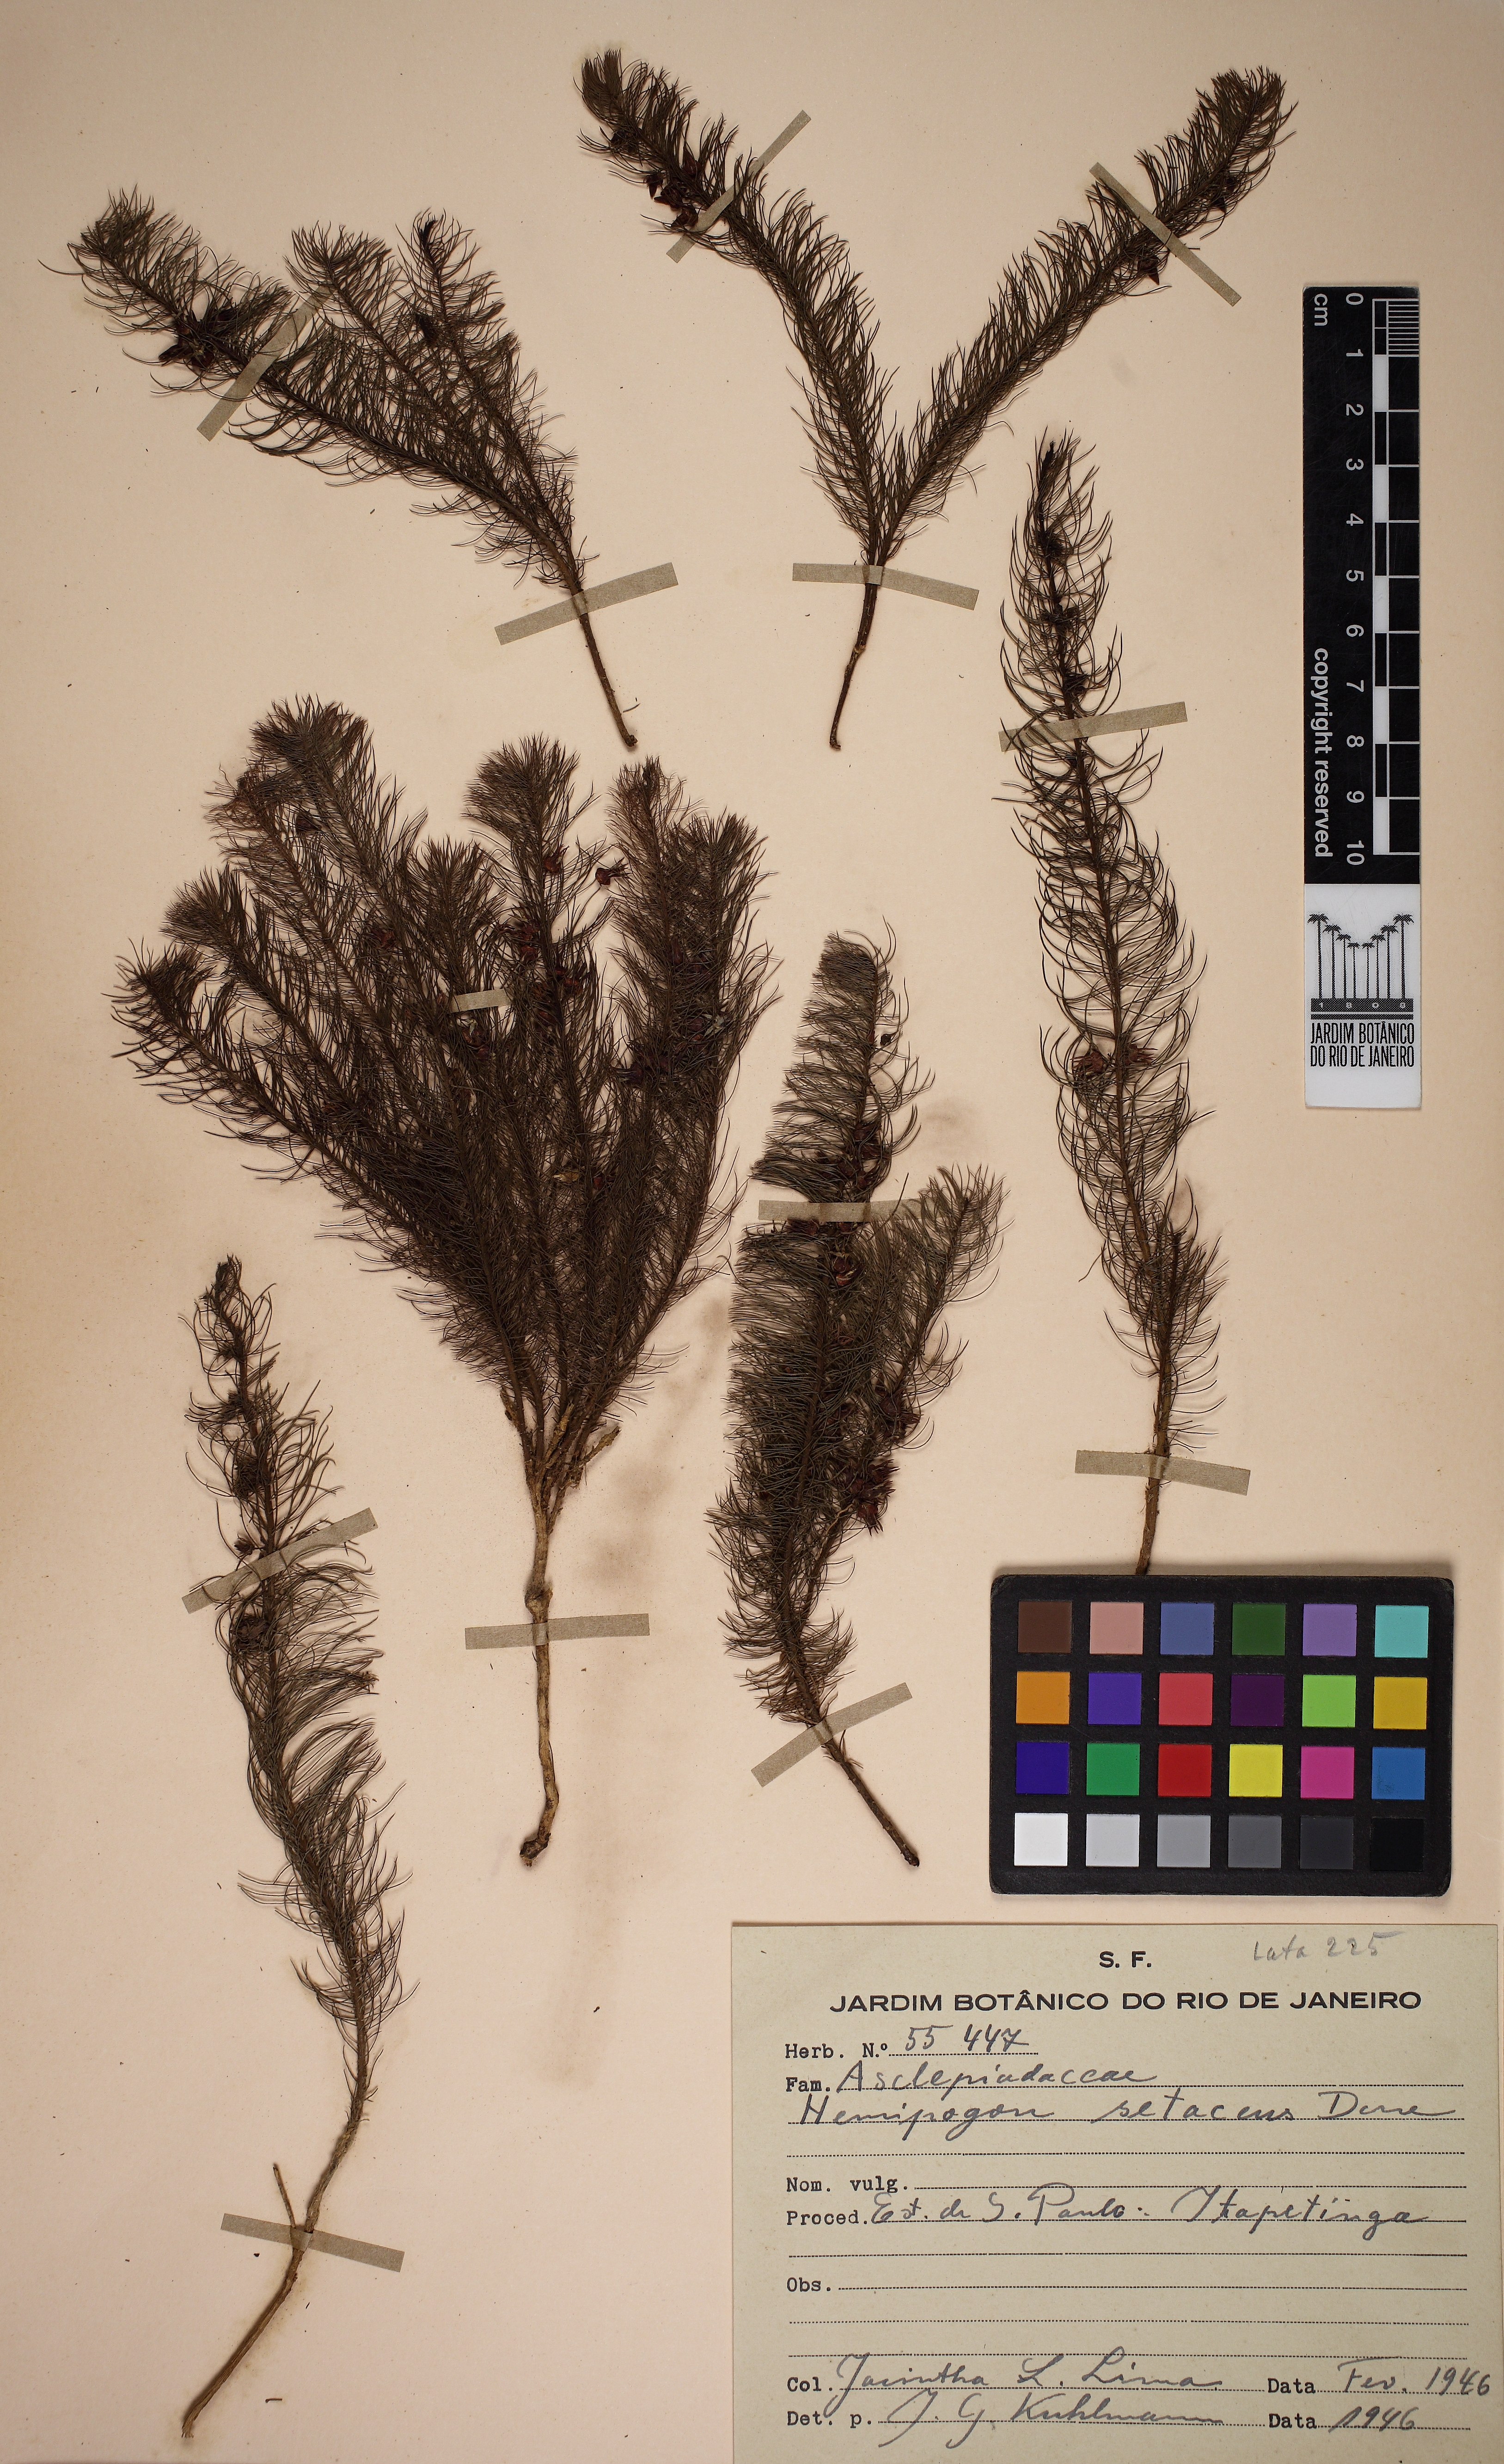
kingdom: Plantae
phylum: Tracheophyta
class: Magnoliopsida
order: Gentianales
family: Apocynaceae
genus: Hemipogon
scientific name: Hemipogon setaceus
